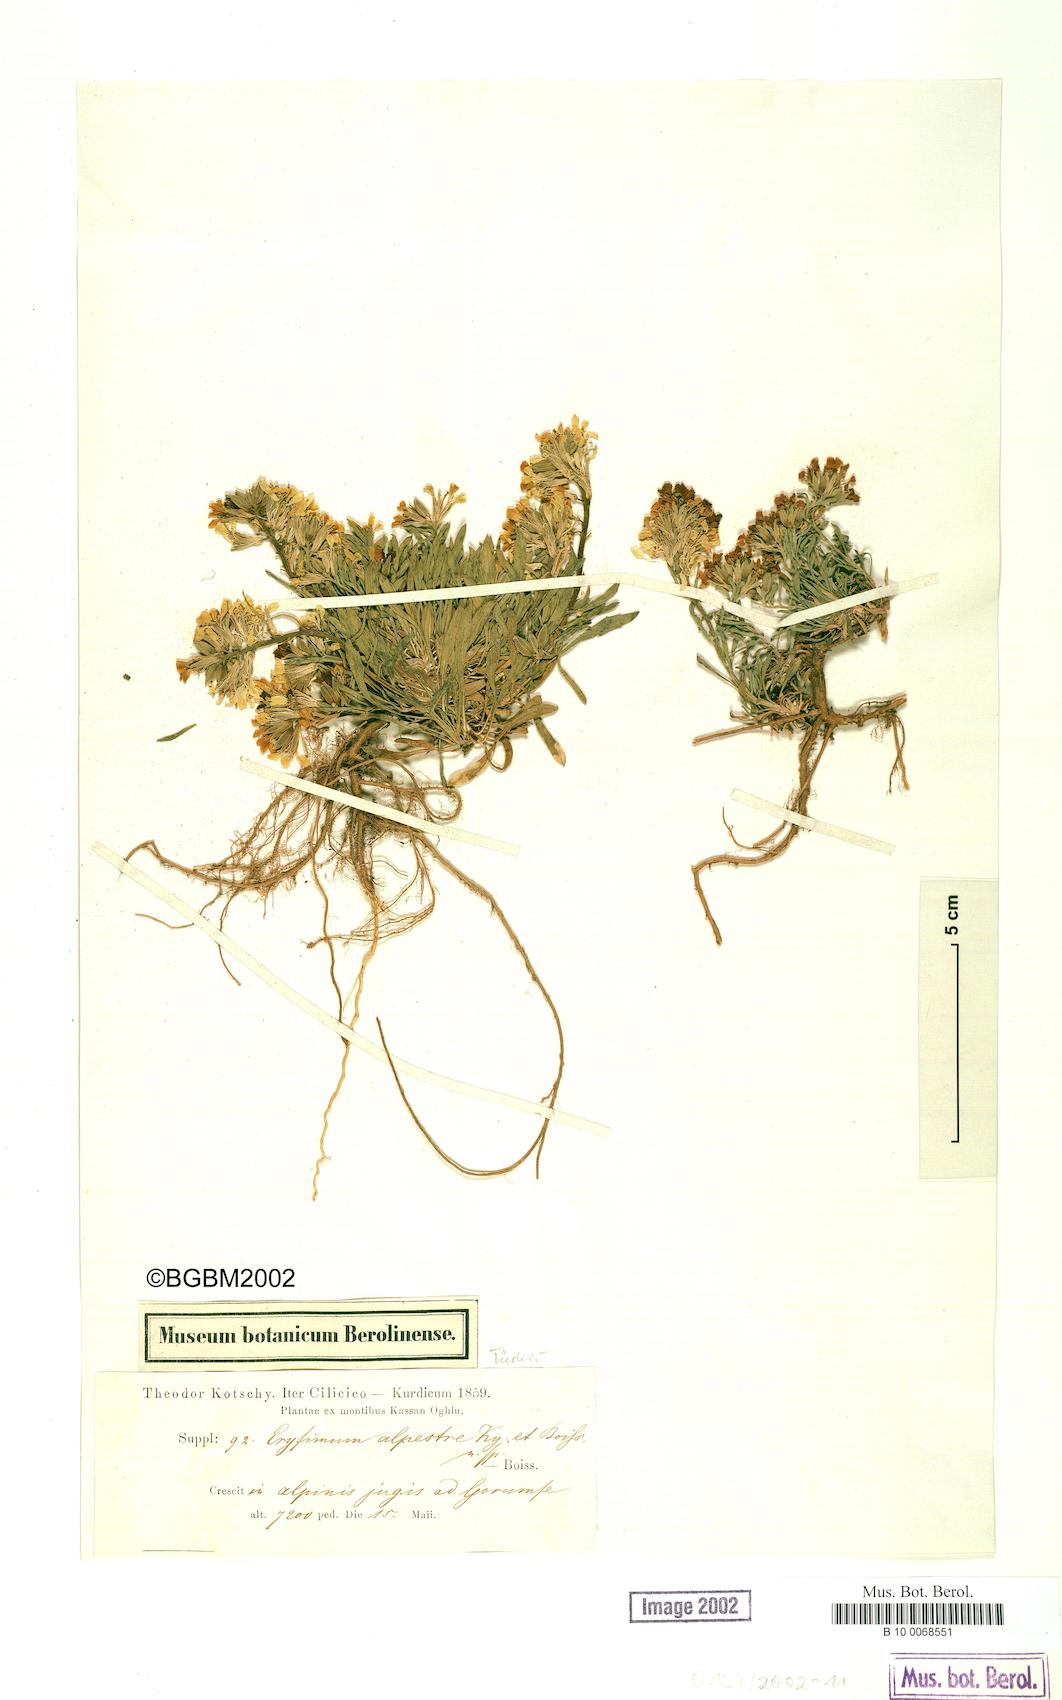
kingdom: Plantae
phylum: Tracheophyta
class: Magnoliopsida
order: Brassicales
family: Brassicaceae
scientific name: Brassicaceae
